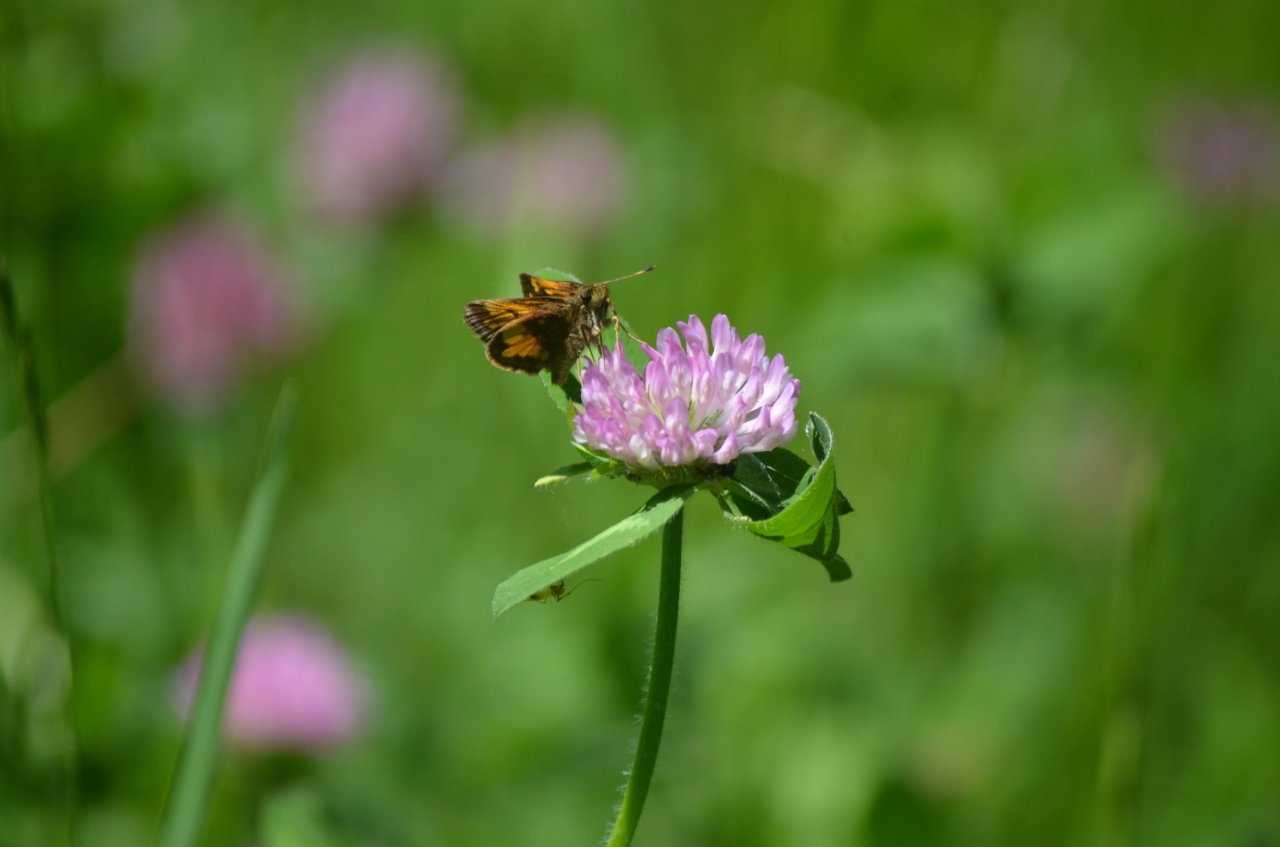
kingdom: Animalia
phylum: Arthropoda
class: Insecta
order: Lepidoptera
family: Hesperiidae
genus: Lon
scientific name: Lon hobomok
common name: Hobomok Skipper
